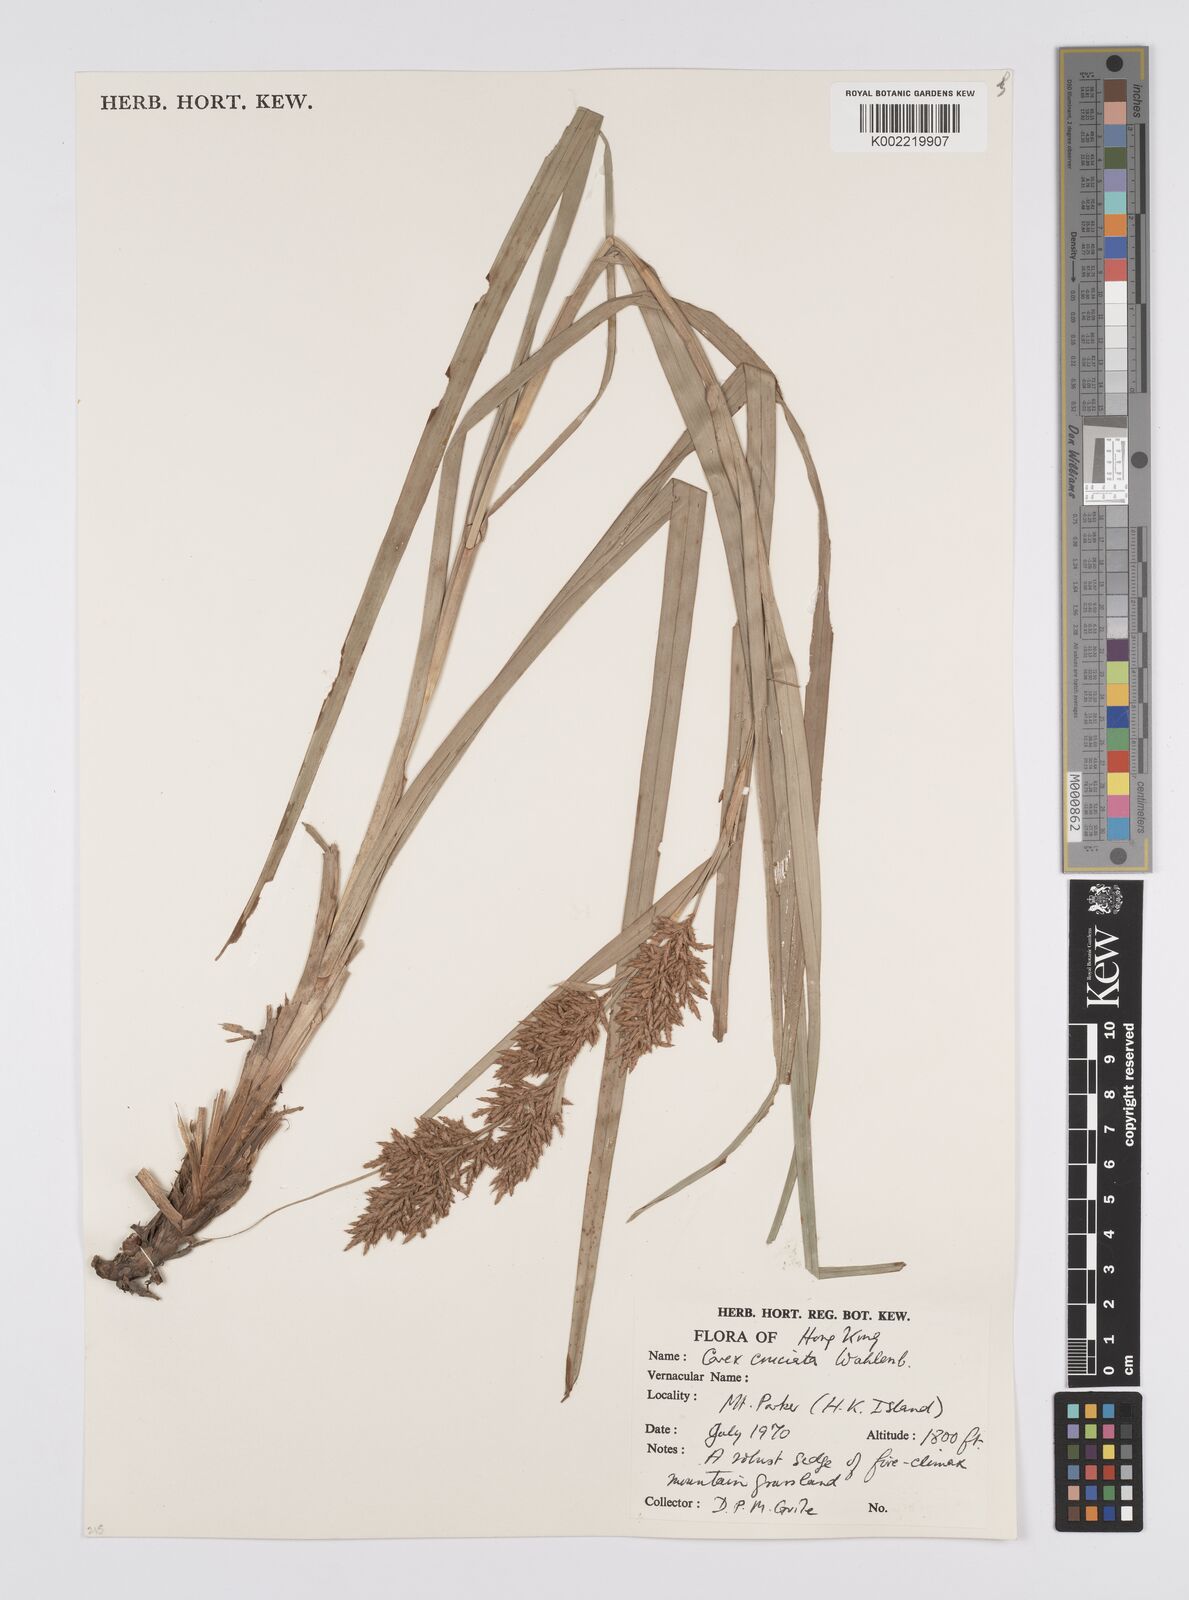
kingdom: Plantae
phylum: Tracheophyta
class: Liliopsida
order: Poales
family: Cyperaceae
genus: Carex
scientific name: Carex cruciata
